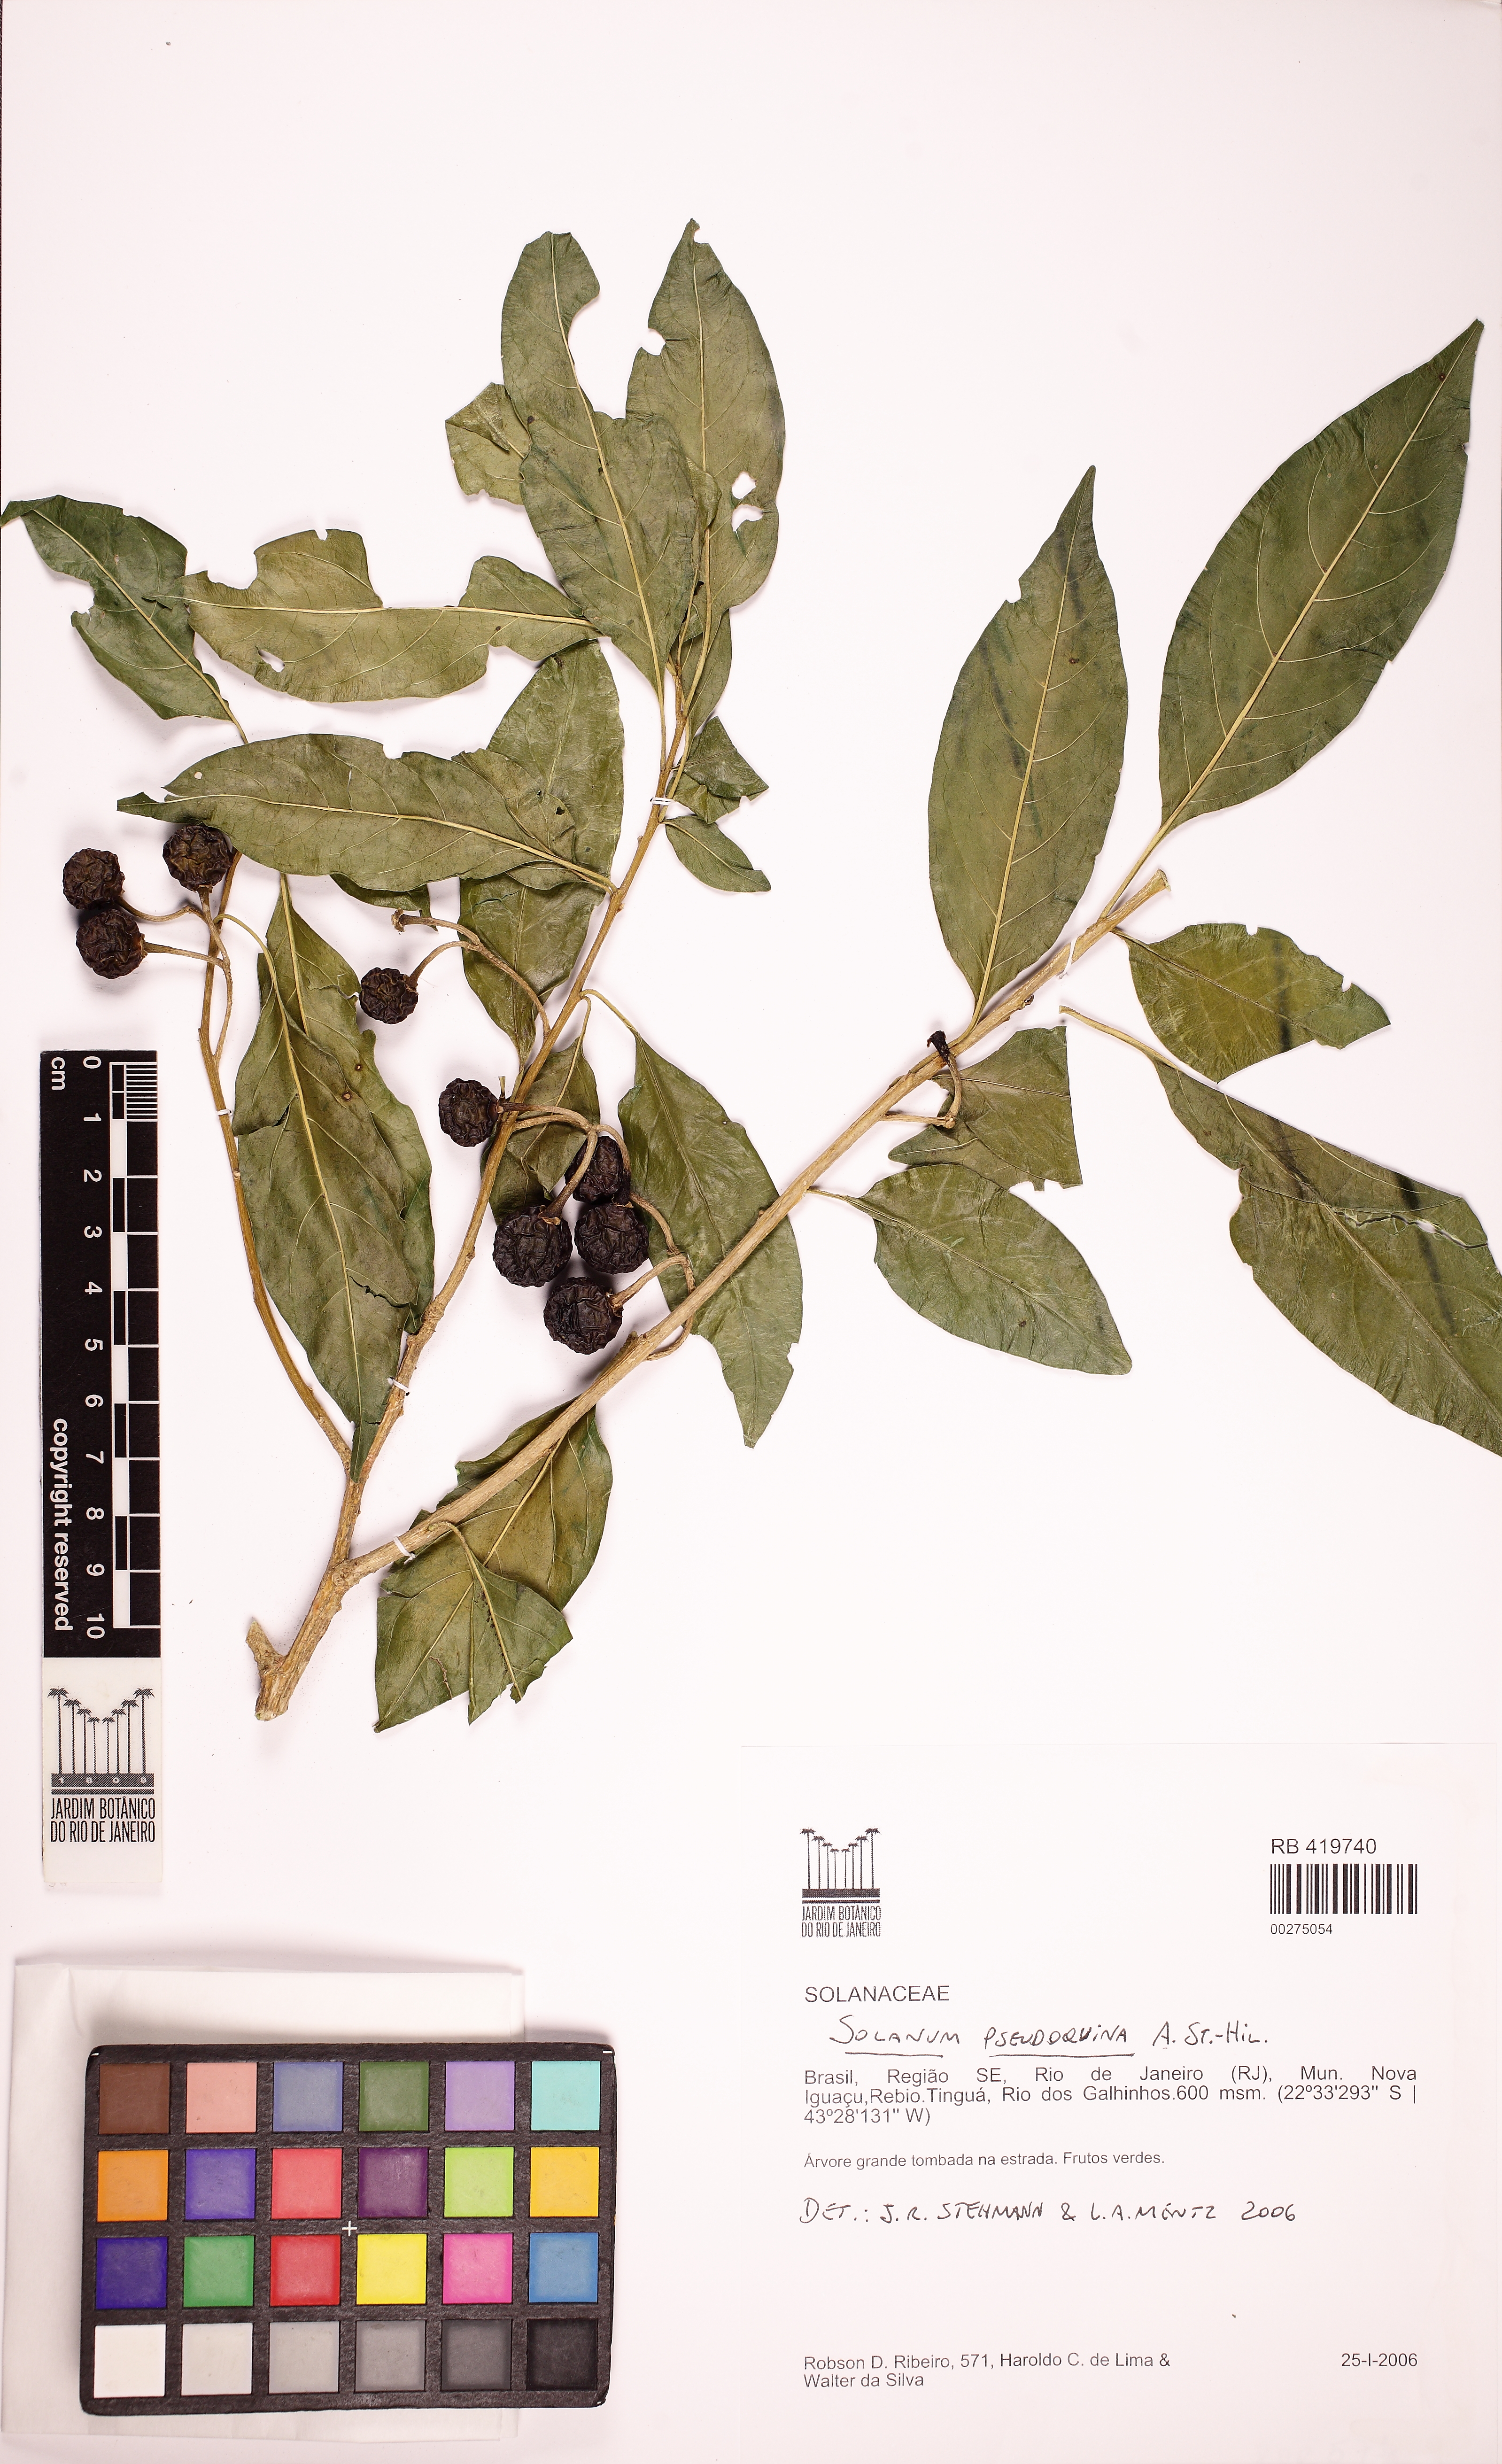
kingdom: Plantae
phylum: Tracheophyta
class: Magnoliopsida
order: Solanales
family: Solanaceae
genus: Solanum
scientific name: Solanum pseudoquina
